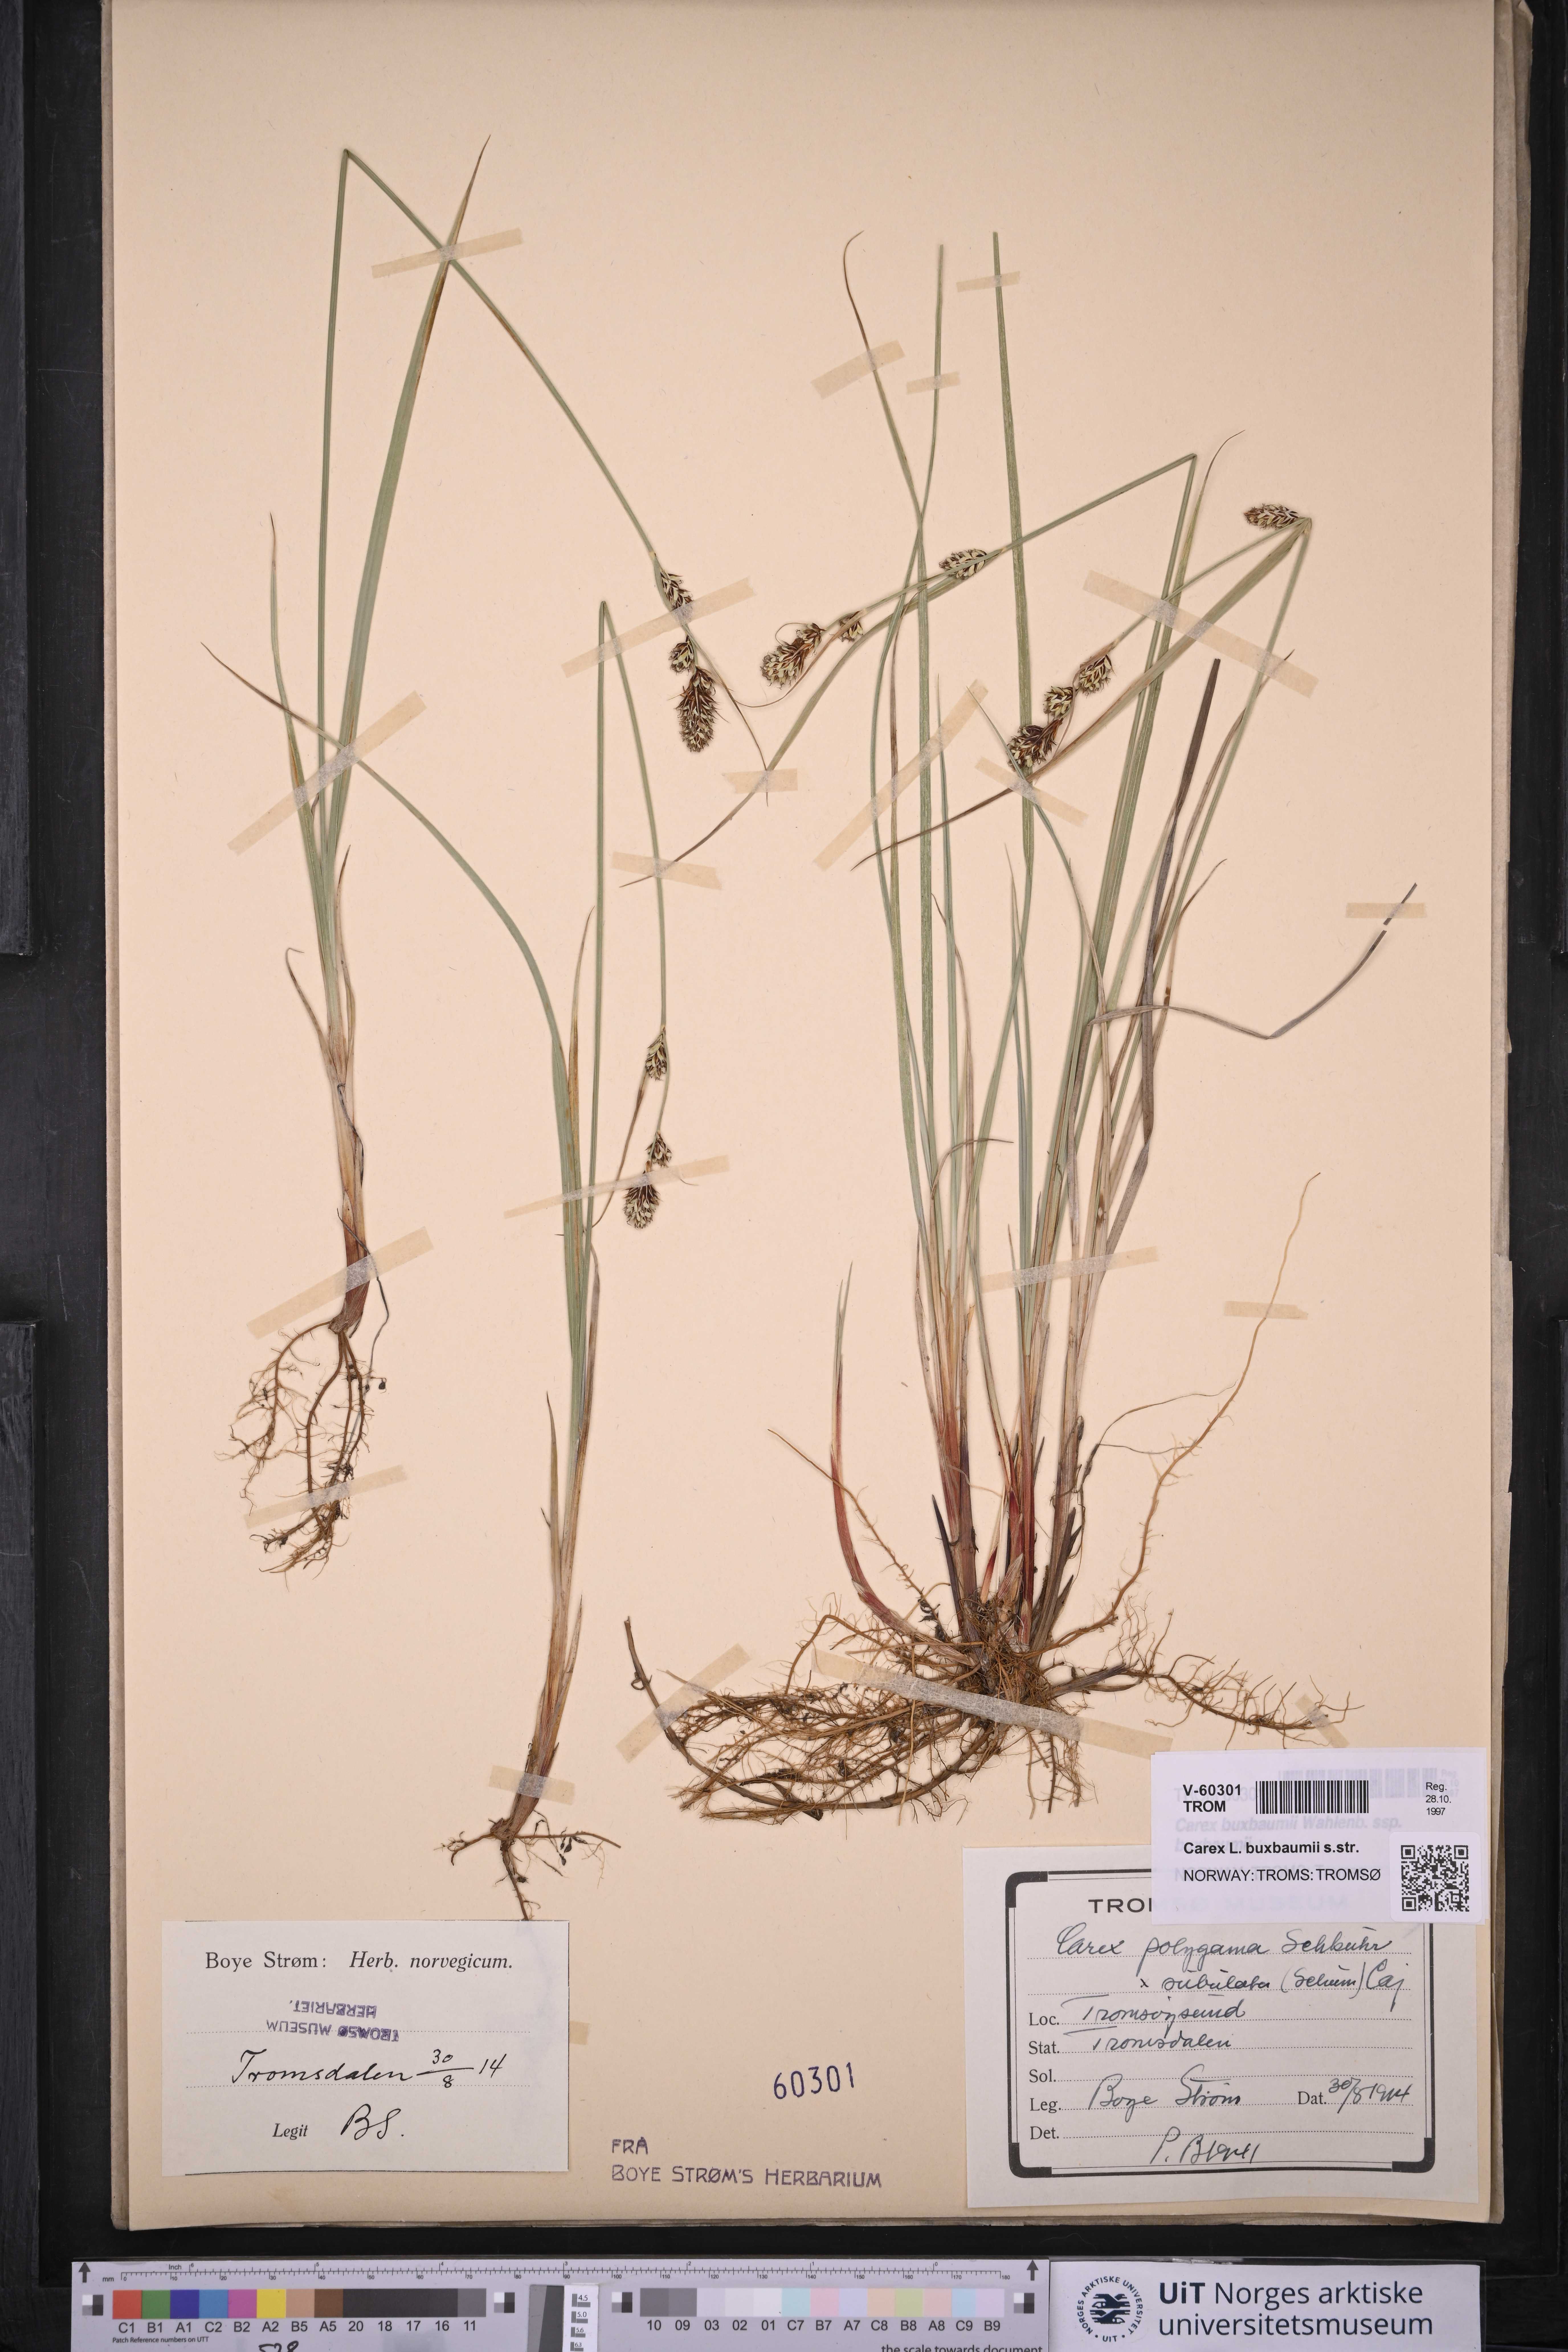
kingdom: Plantae
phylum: Tracheophyta
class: Liliopsida
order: Poales
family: Cyperaceae
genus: Carex
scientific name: Carex buxbaumii
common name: Club sedge
